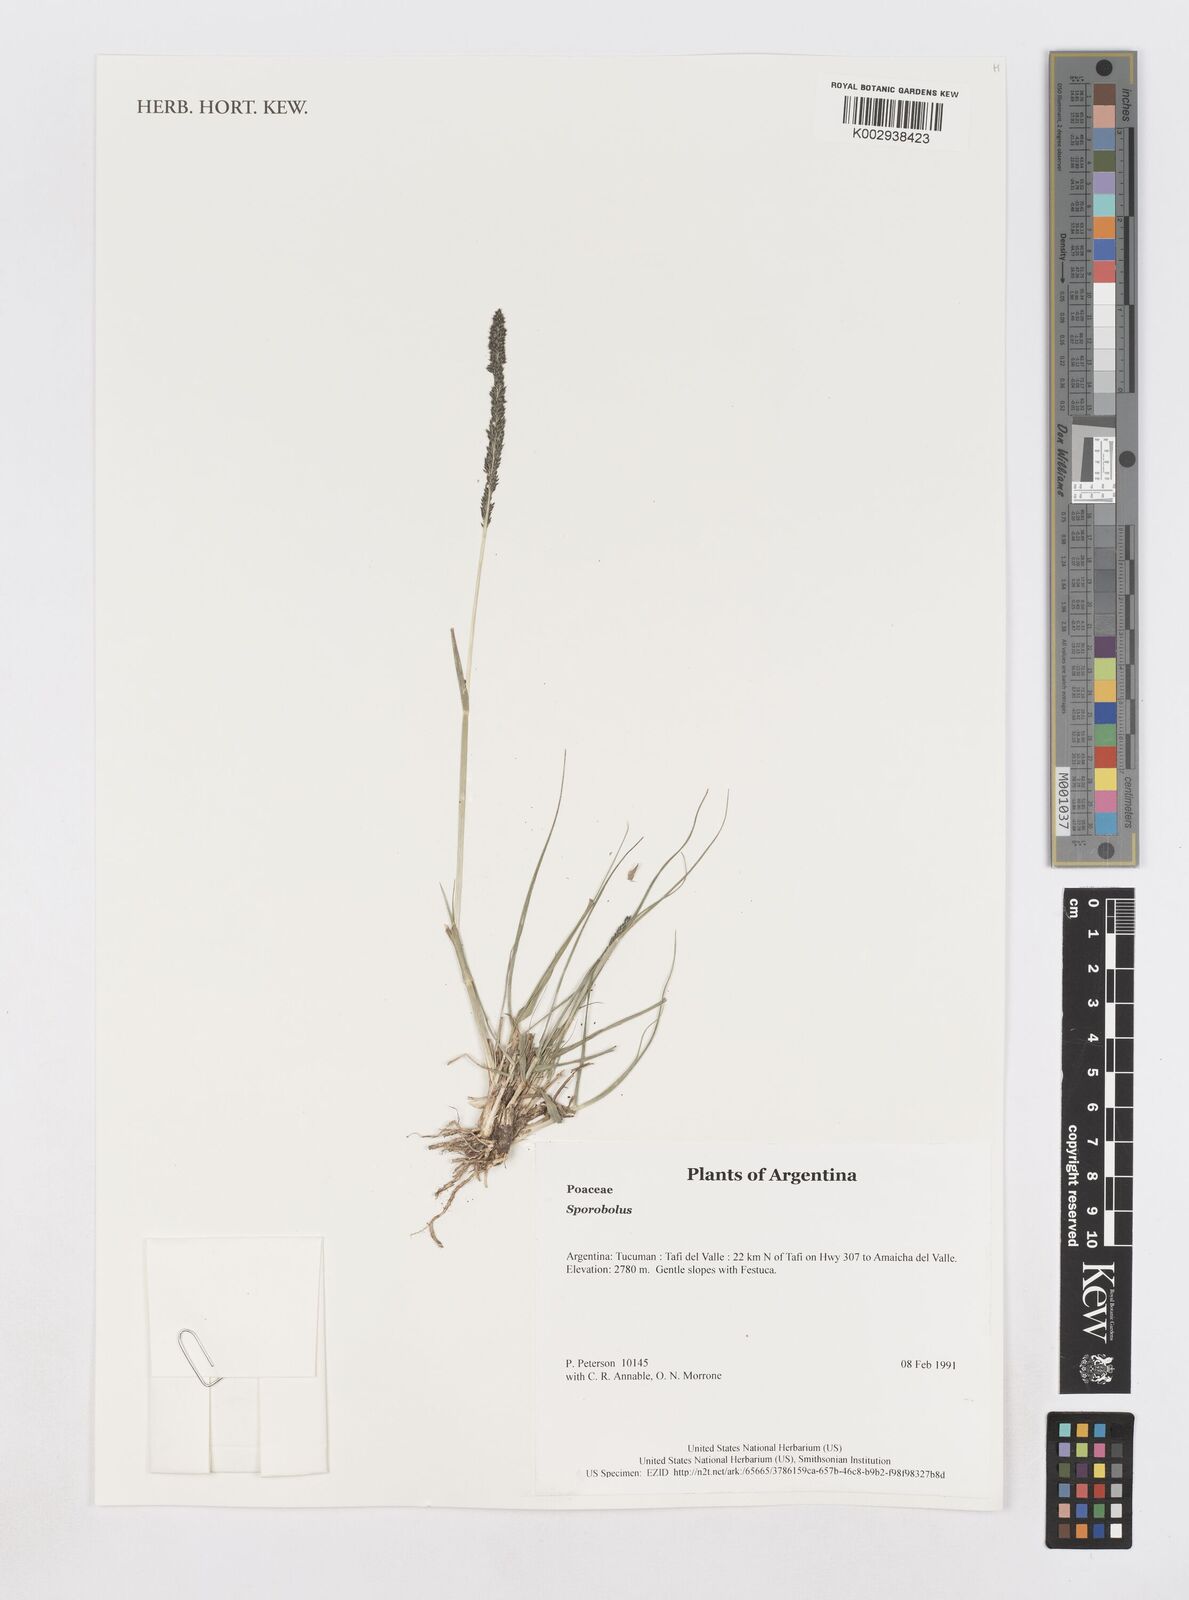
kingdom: Plantae
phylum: Tracheophyta
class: Liliopsida
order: Poales
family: Poaceae
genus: Sporobolus
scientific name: Sporobolus
